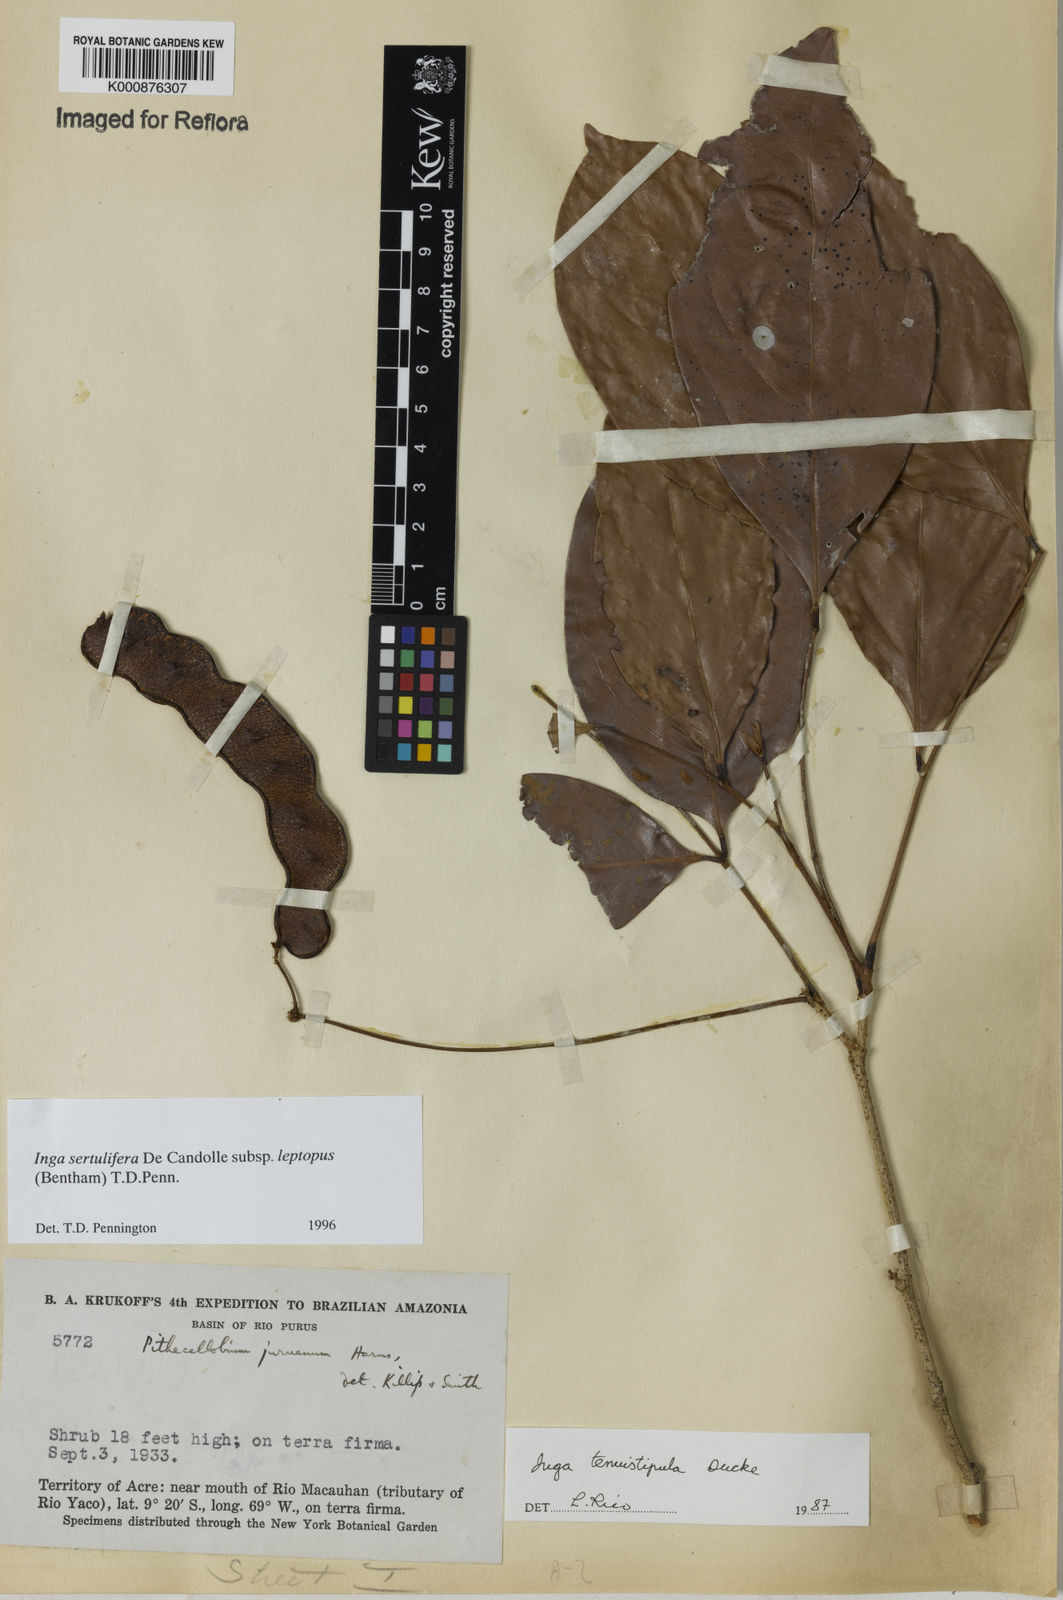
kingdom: Plantae
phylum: Tracheophyta
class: Magnoliopsida
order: Fabales
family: Fabaceae
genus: Inga
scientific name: Inga sertulifera
